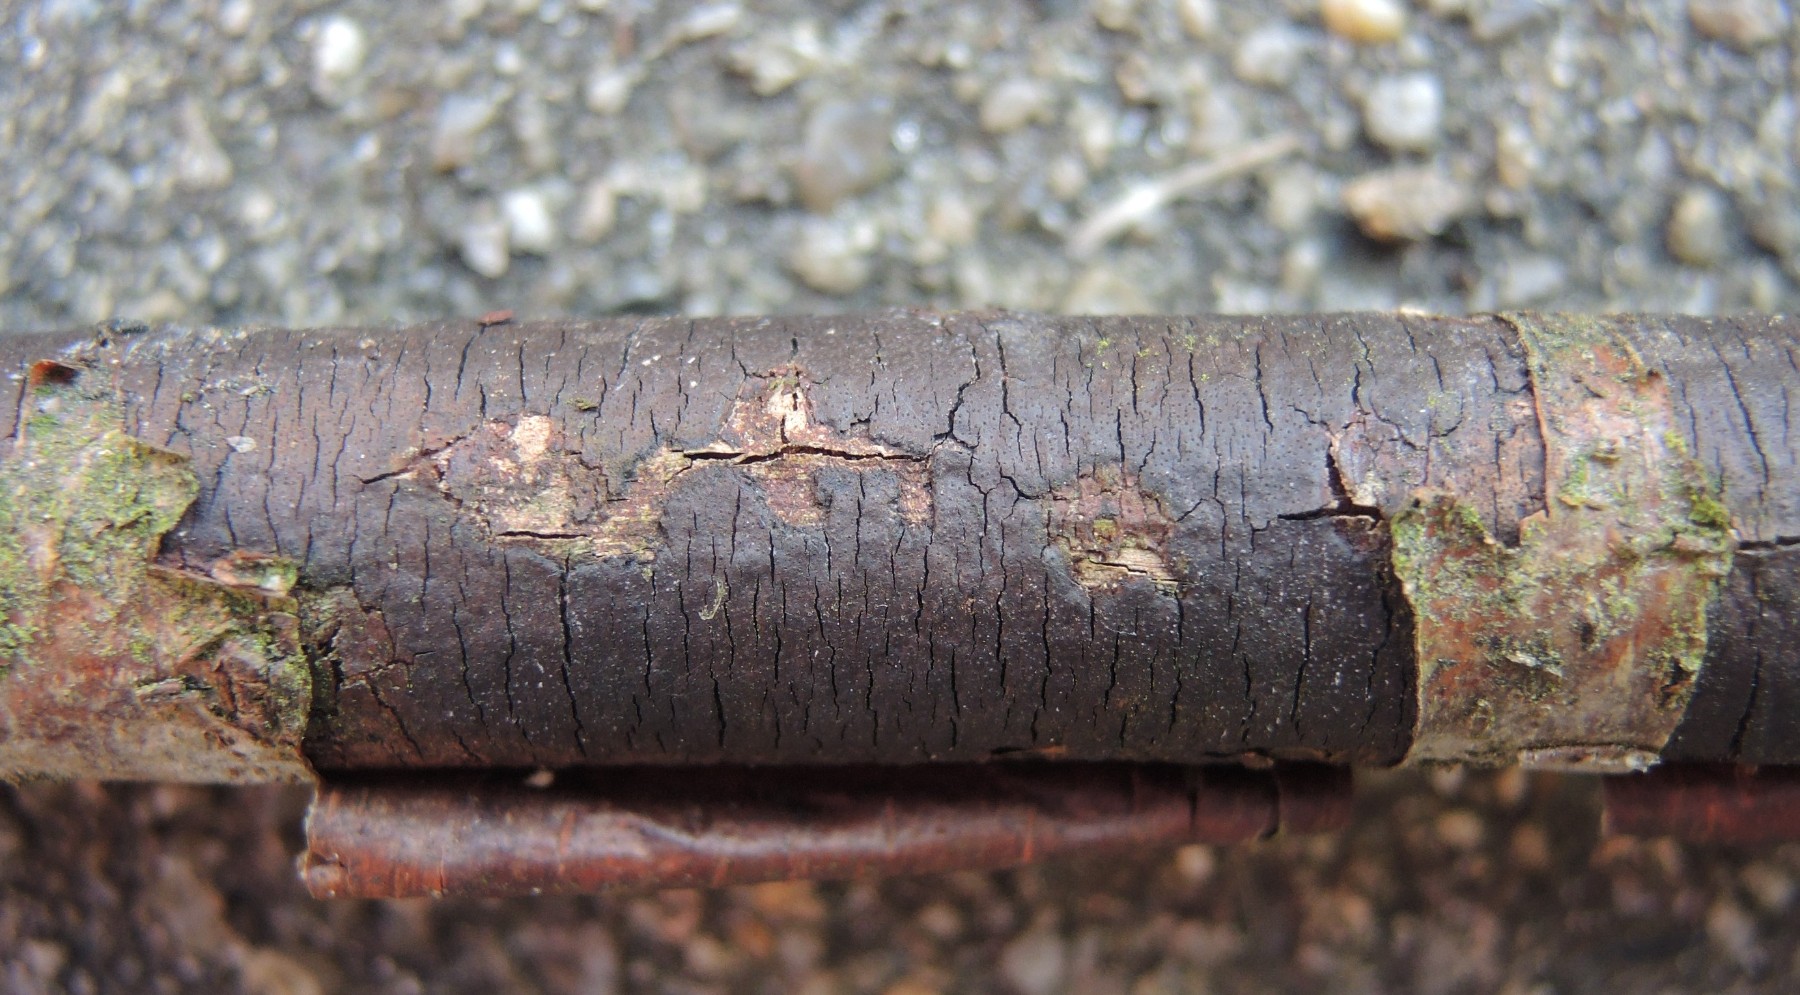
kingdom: Fungi
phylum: Ascomycota
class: Sordariomycetes
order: Xylariales
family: Diatrypaceae
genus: Diatrype
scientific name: Diatrype
